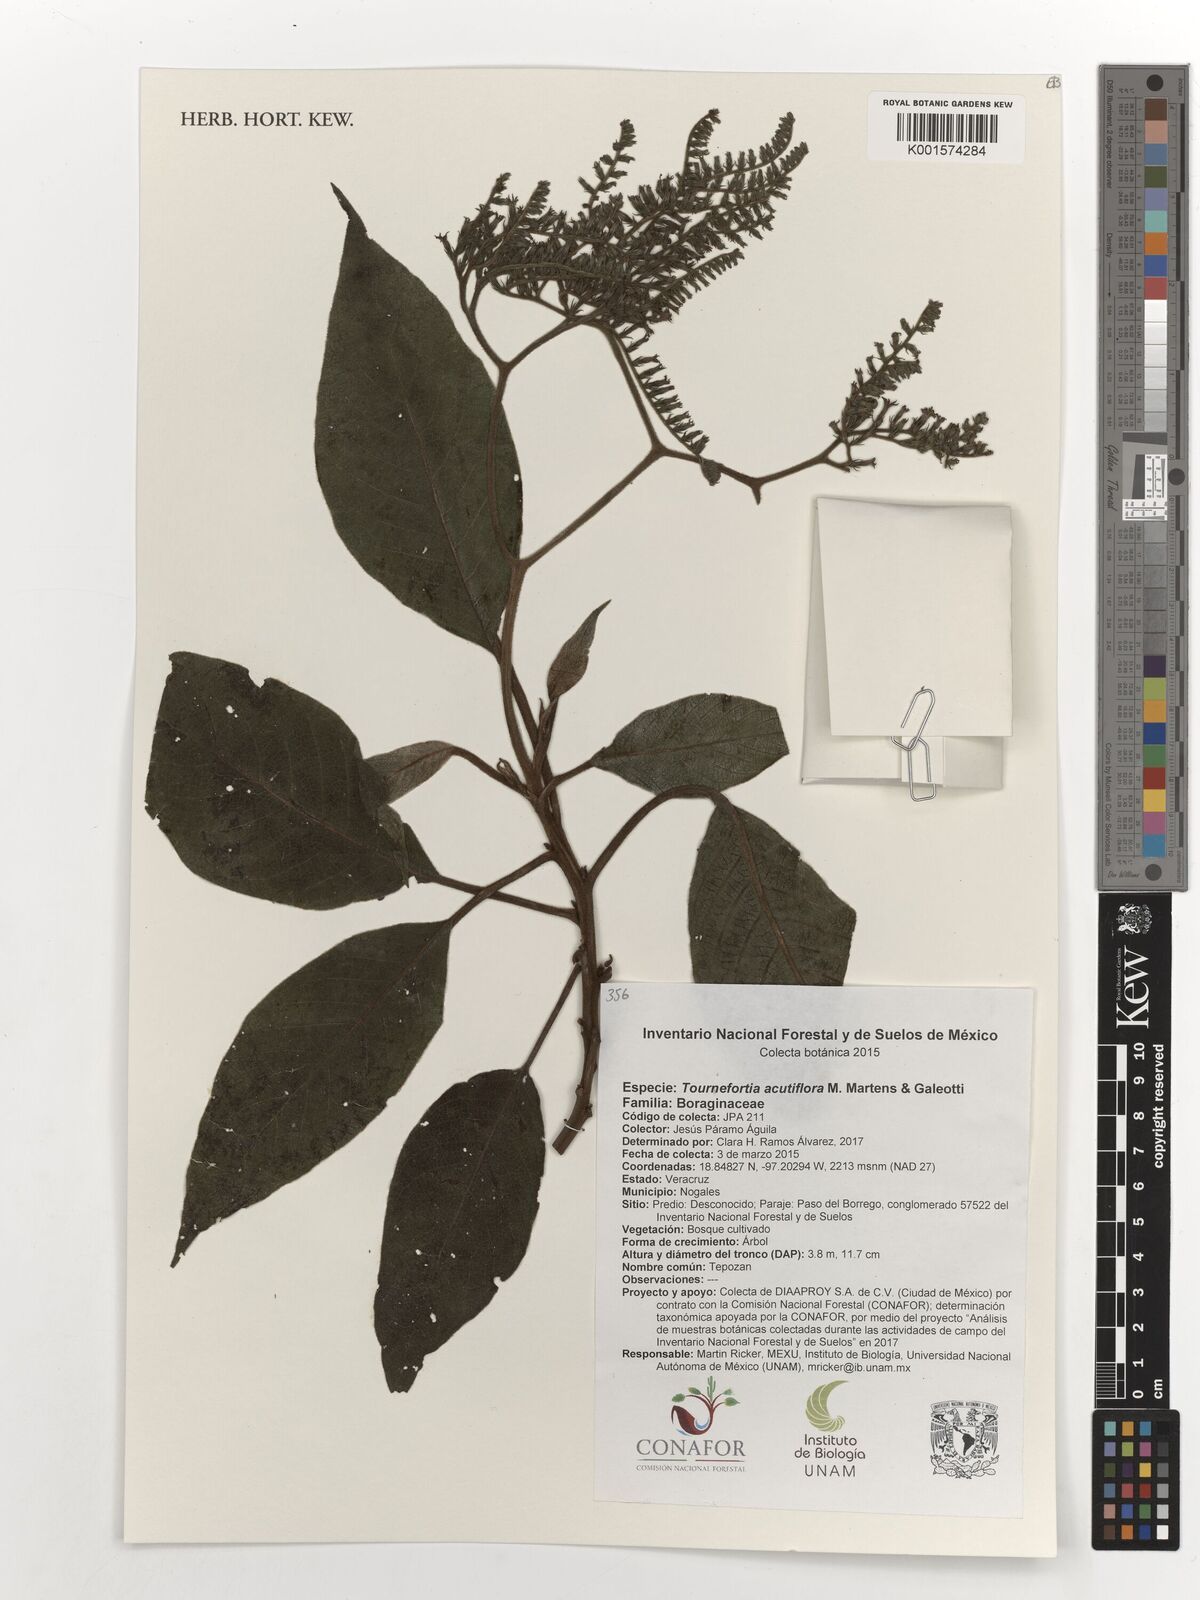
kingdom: Plantae
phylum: Tracheophyta
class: Magnoliopsida
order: Boraginales
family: Heliotropiaceae
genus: Heliotropium
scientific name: Heliotropium petiolare
